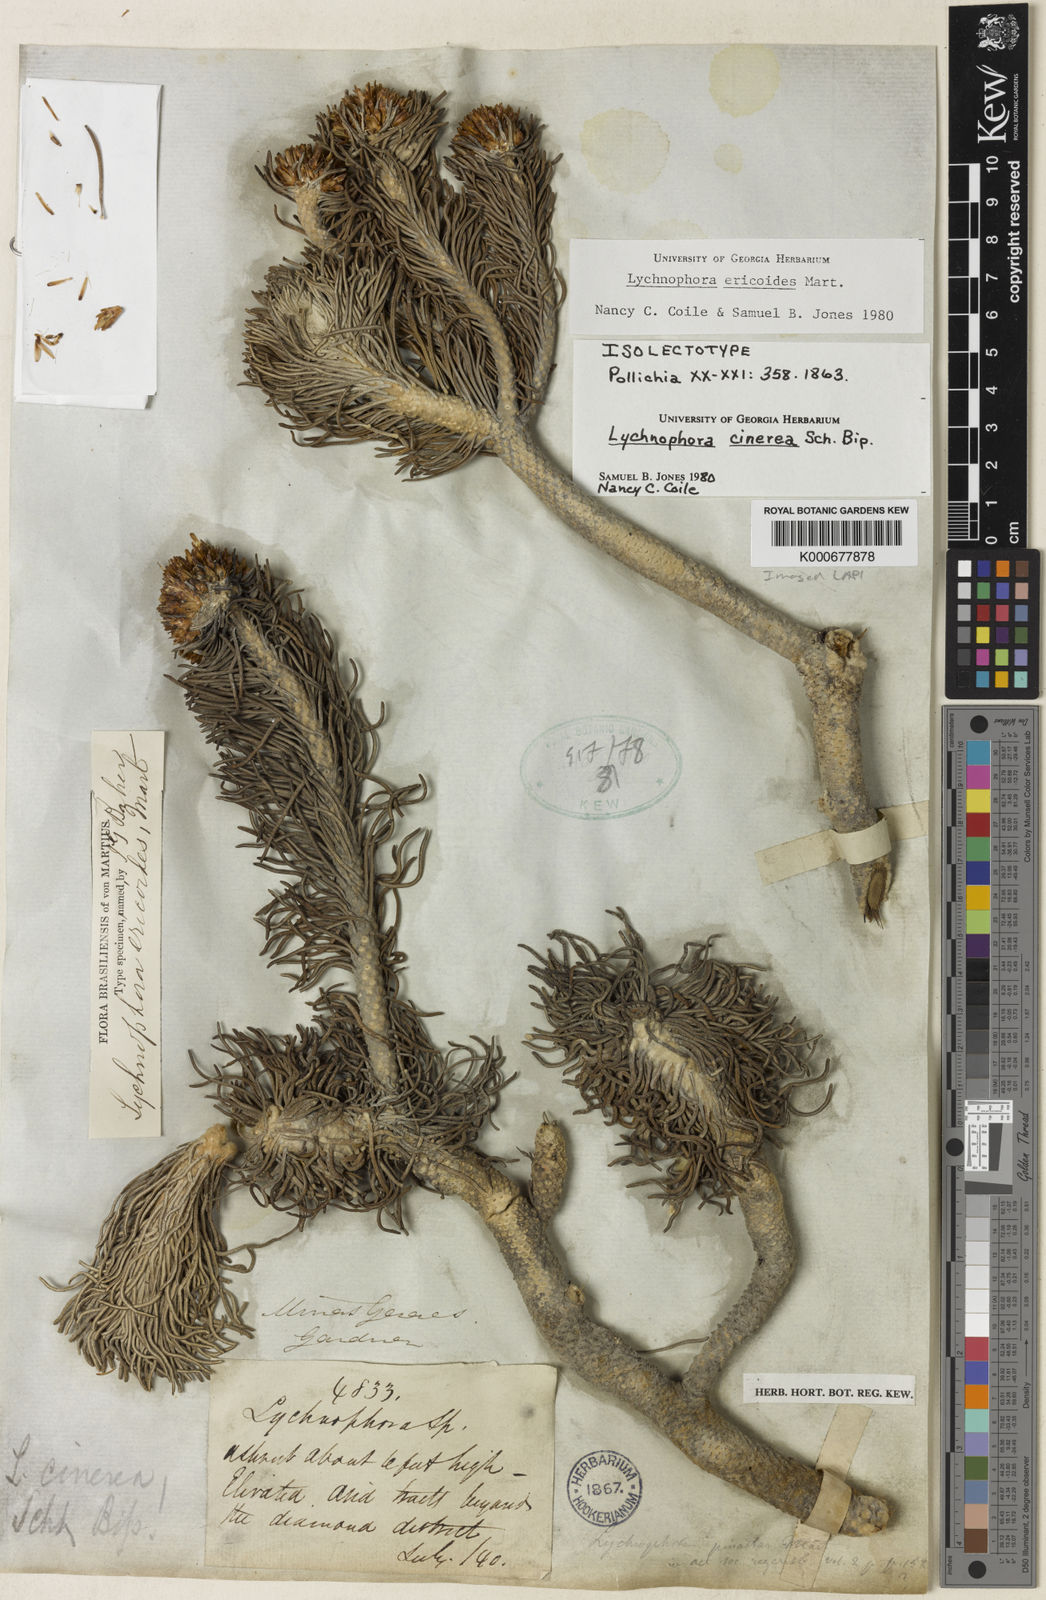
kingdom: Plantae
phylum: Tracheophyta
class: Magnoliopsida
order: Asterales
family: Asteraceae
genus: Lychnophora
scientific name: Lychnophora ericoides
